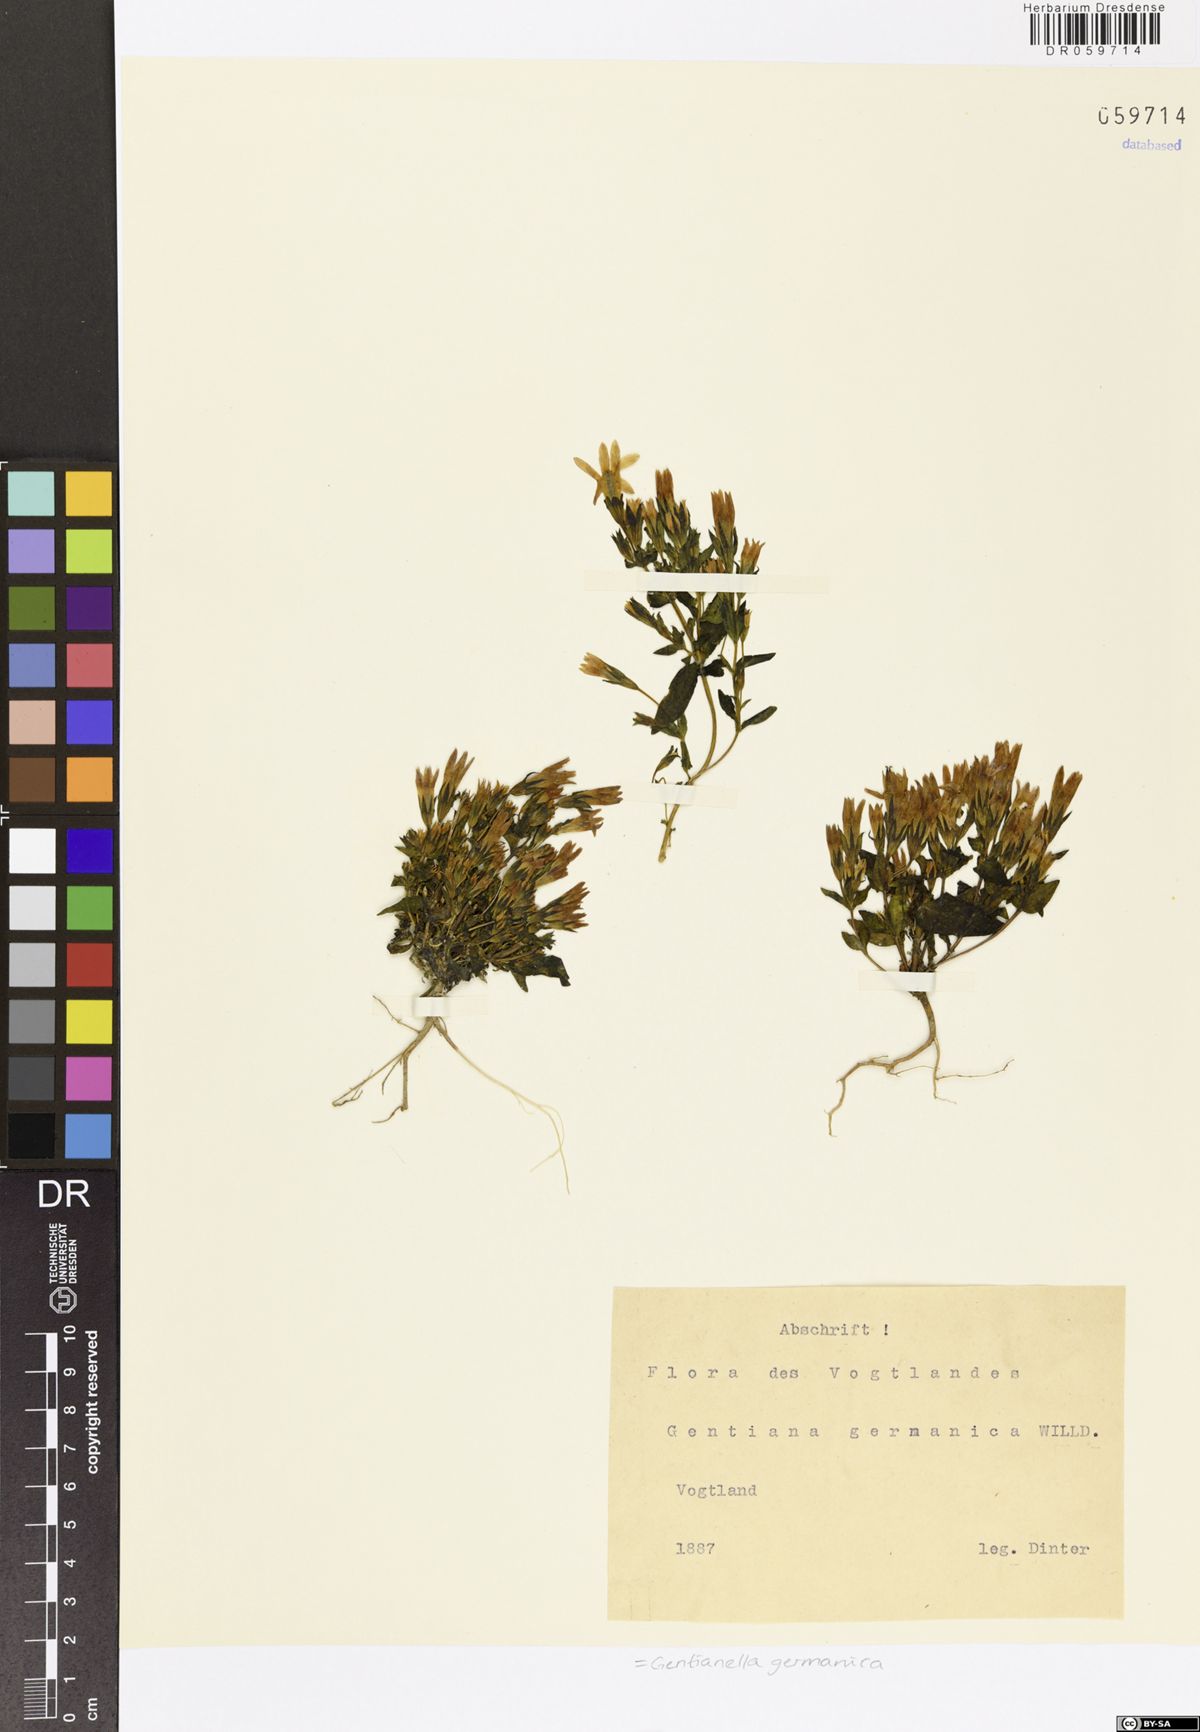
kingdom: Plantae
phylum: Tracheophyta
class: Magnoliopsida
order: Gentianales
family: Gentianaceae
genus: Gentianella
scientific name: Gentianella germanica
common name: Chiltern-gentian
